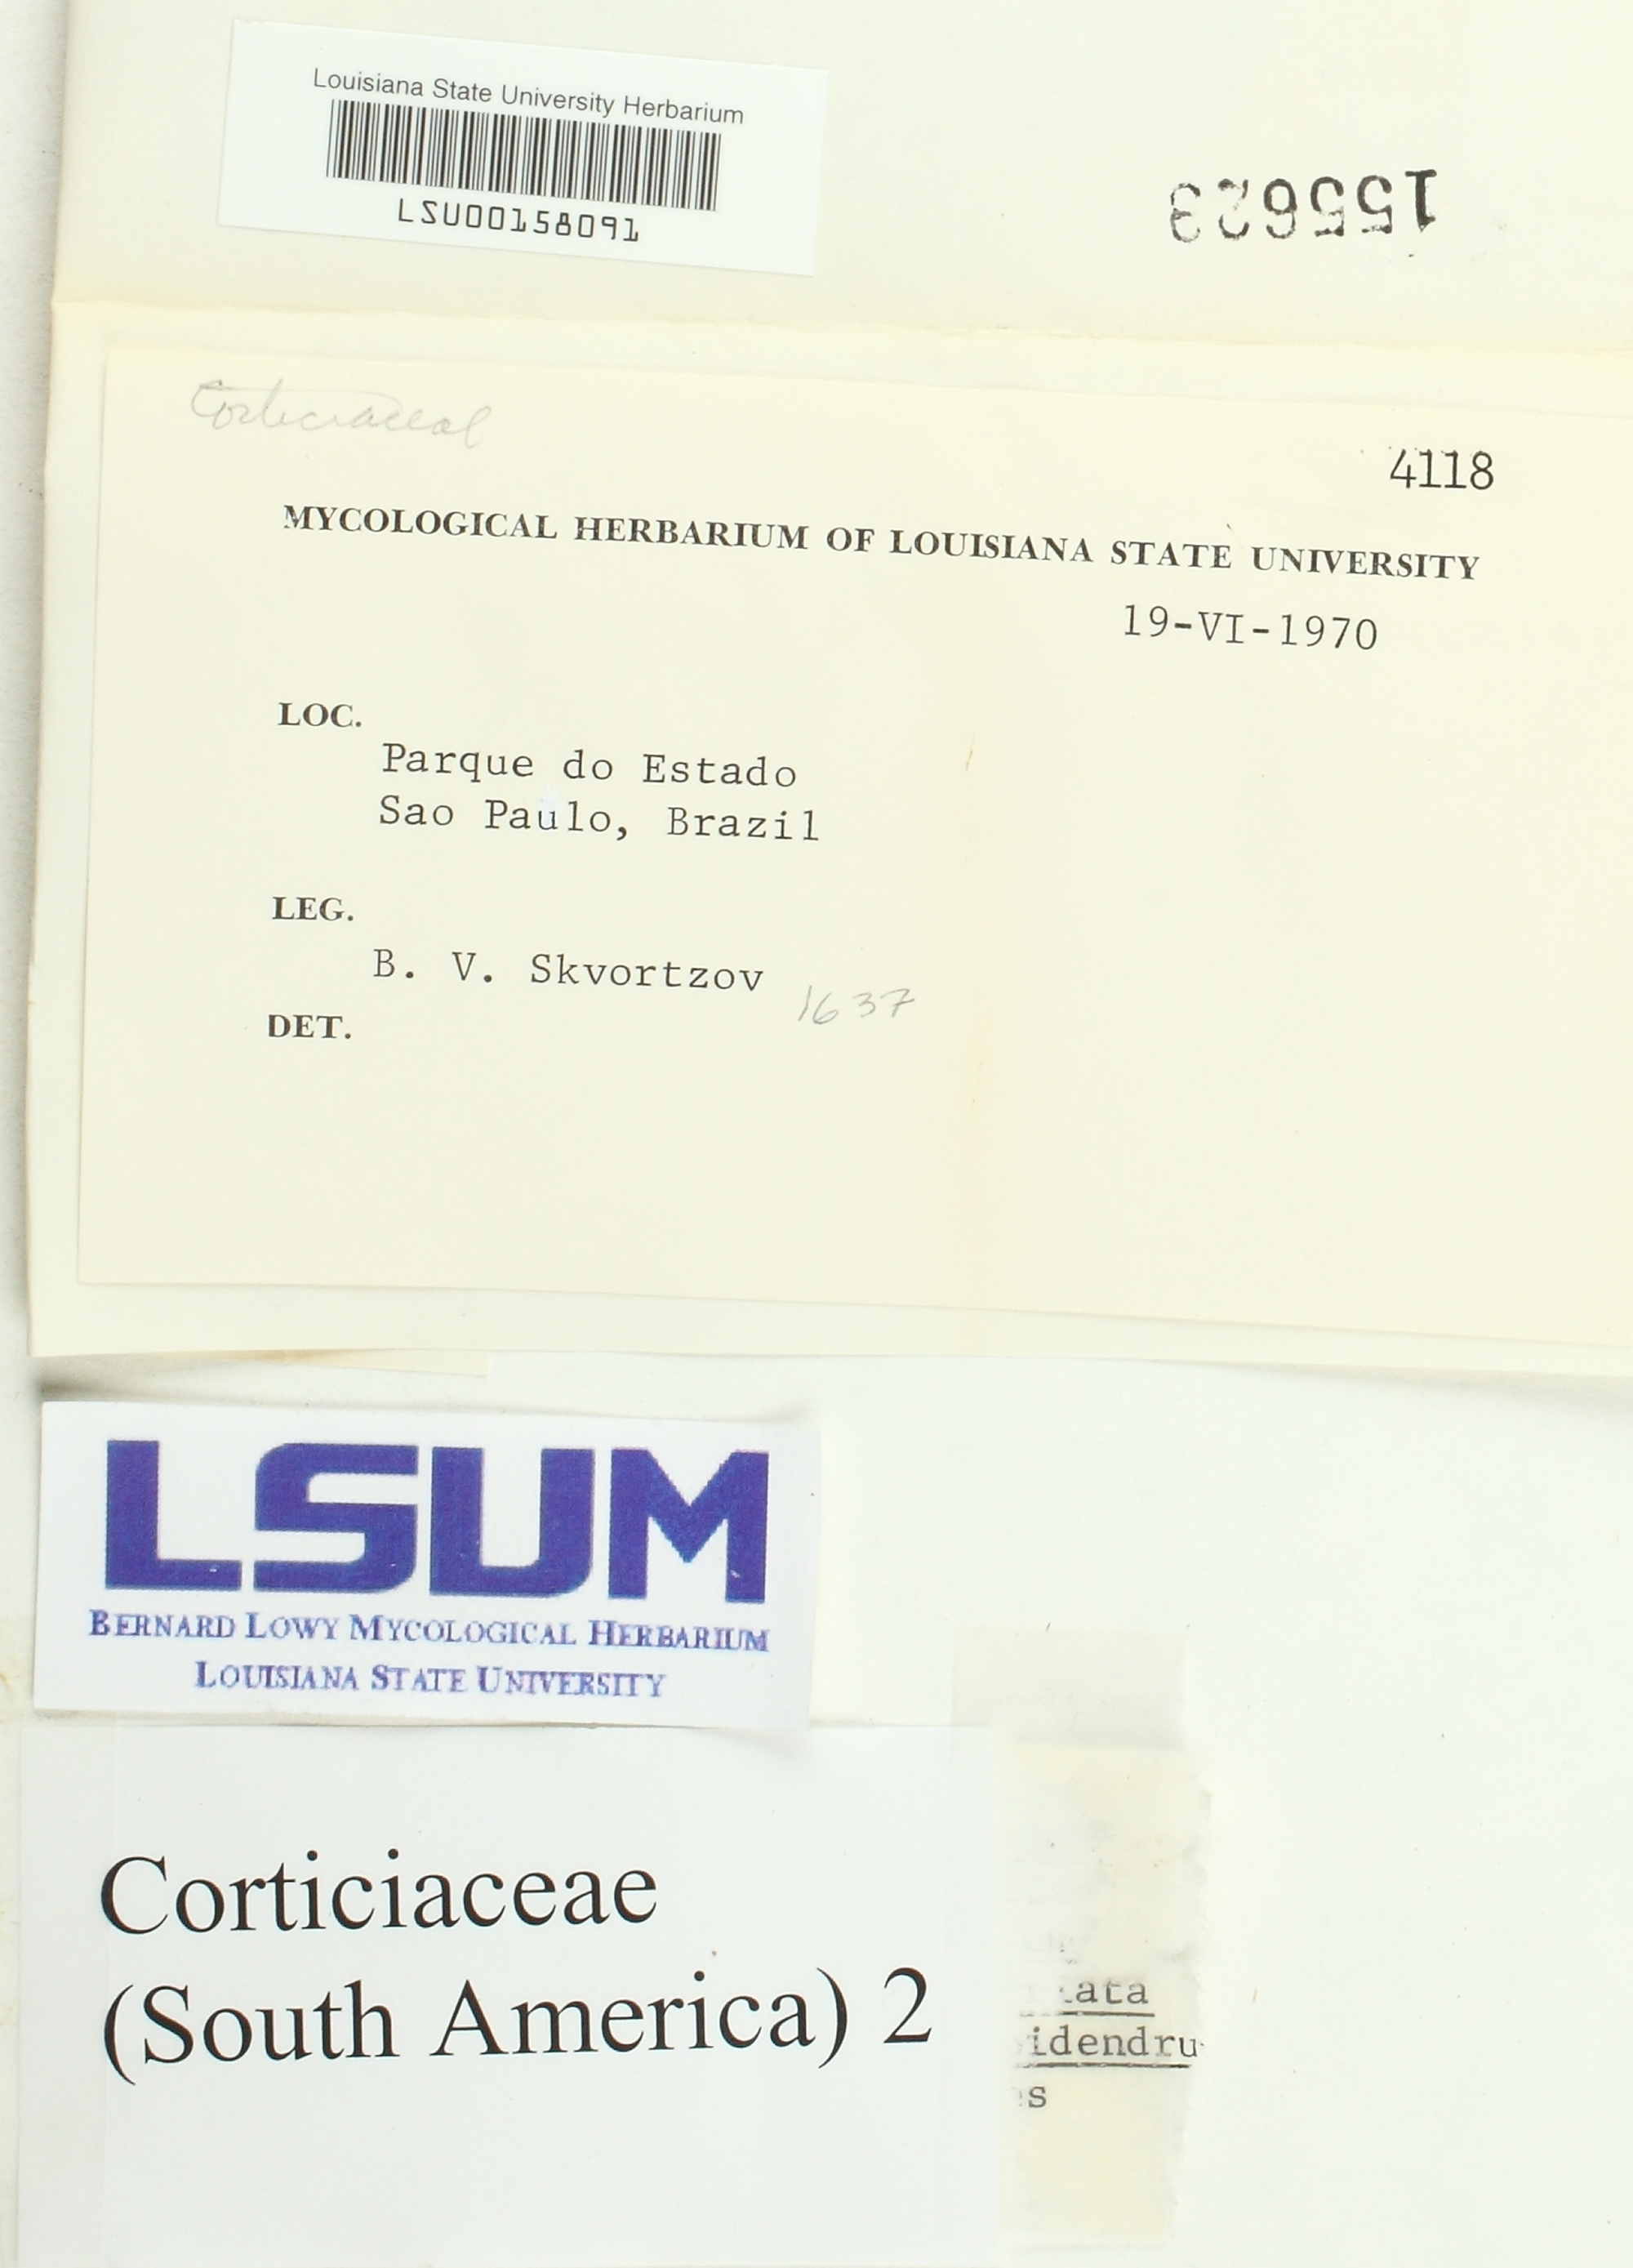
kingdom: Fungi
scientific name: Fungi
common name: Fungi
